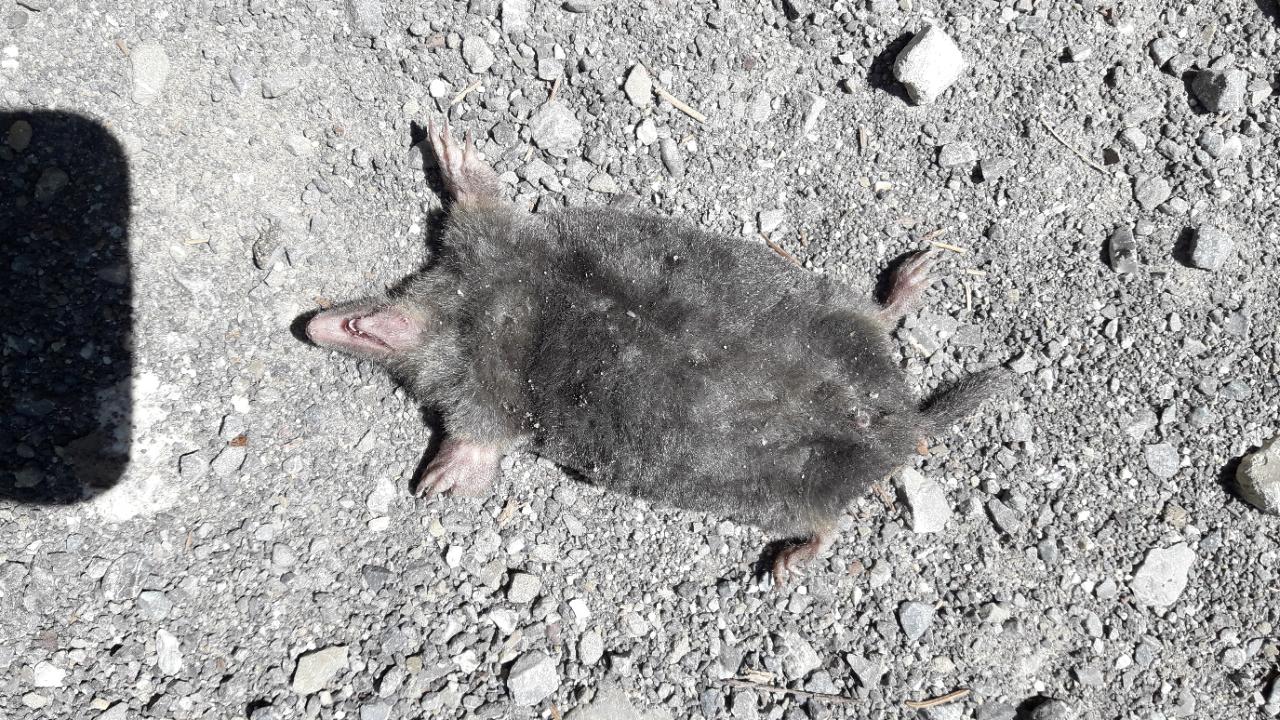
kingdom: Animalia
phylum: Chordata
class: Mammalia
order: Soricomorpha
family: Talpidae
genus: Talpa
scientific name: Talpa europaea
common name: European mole
